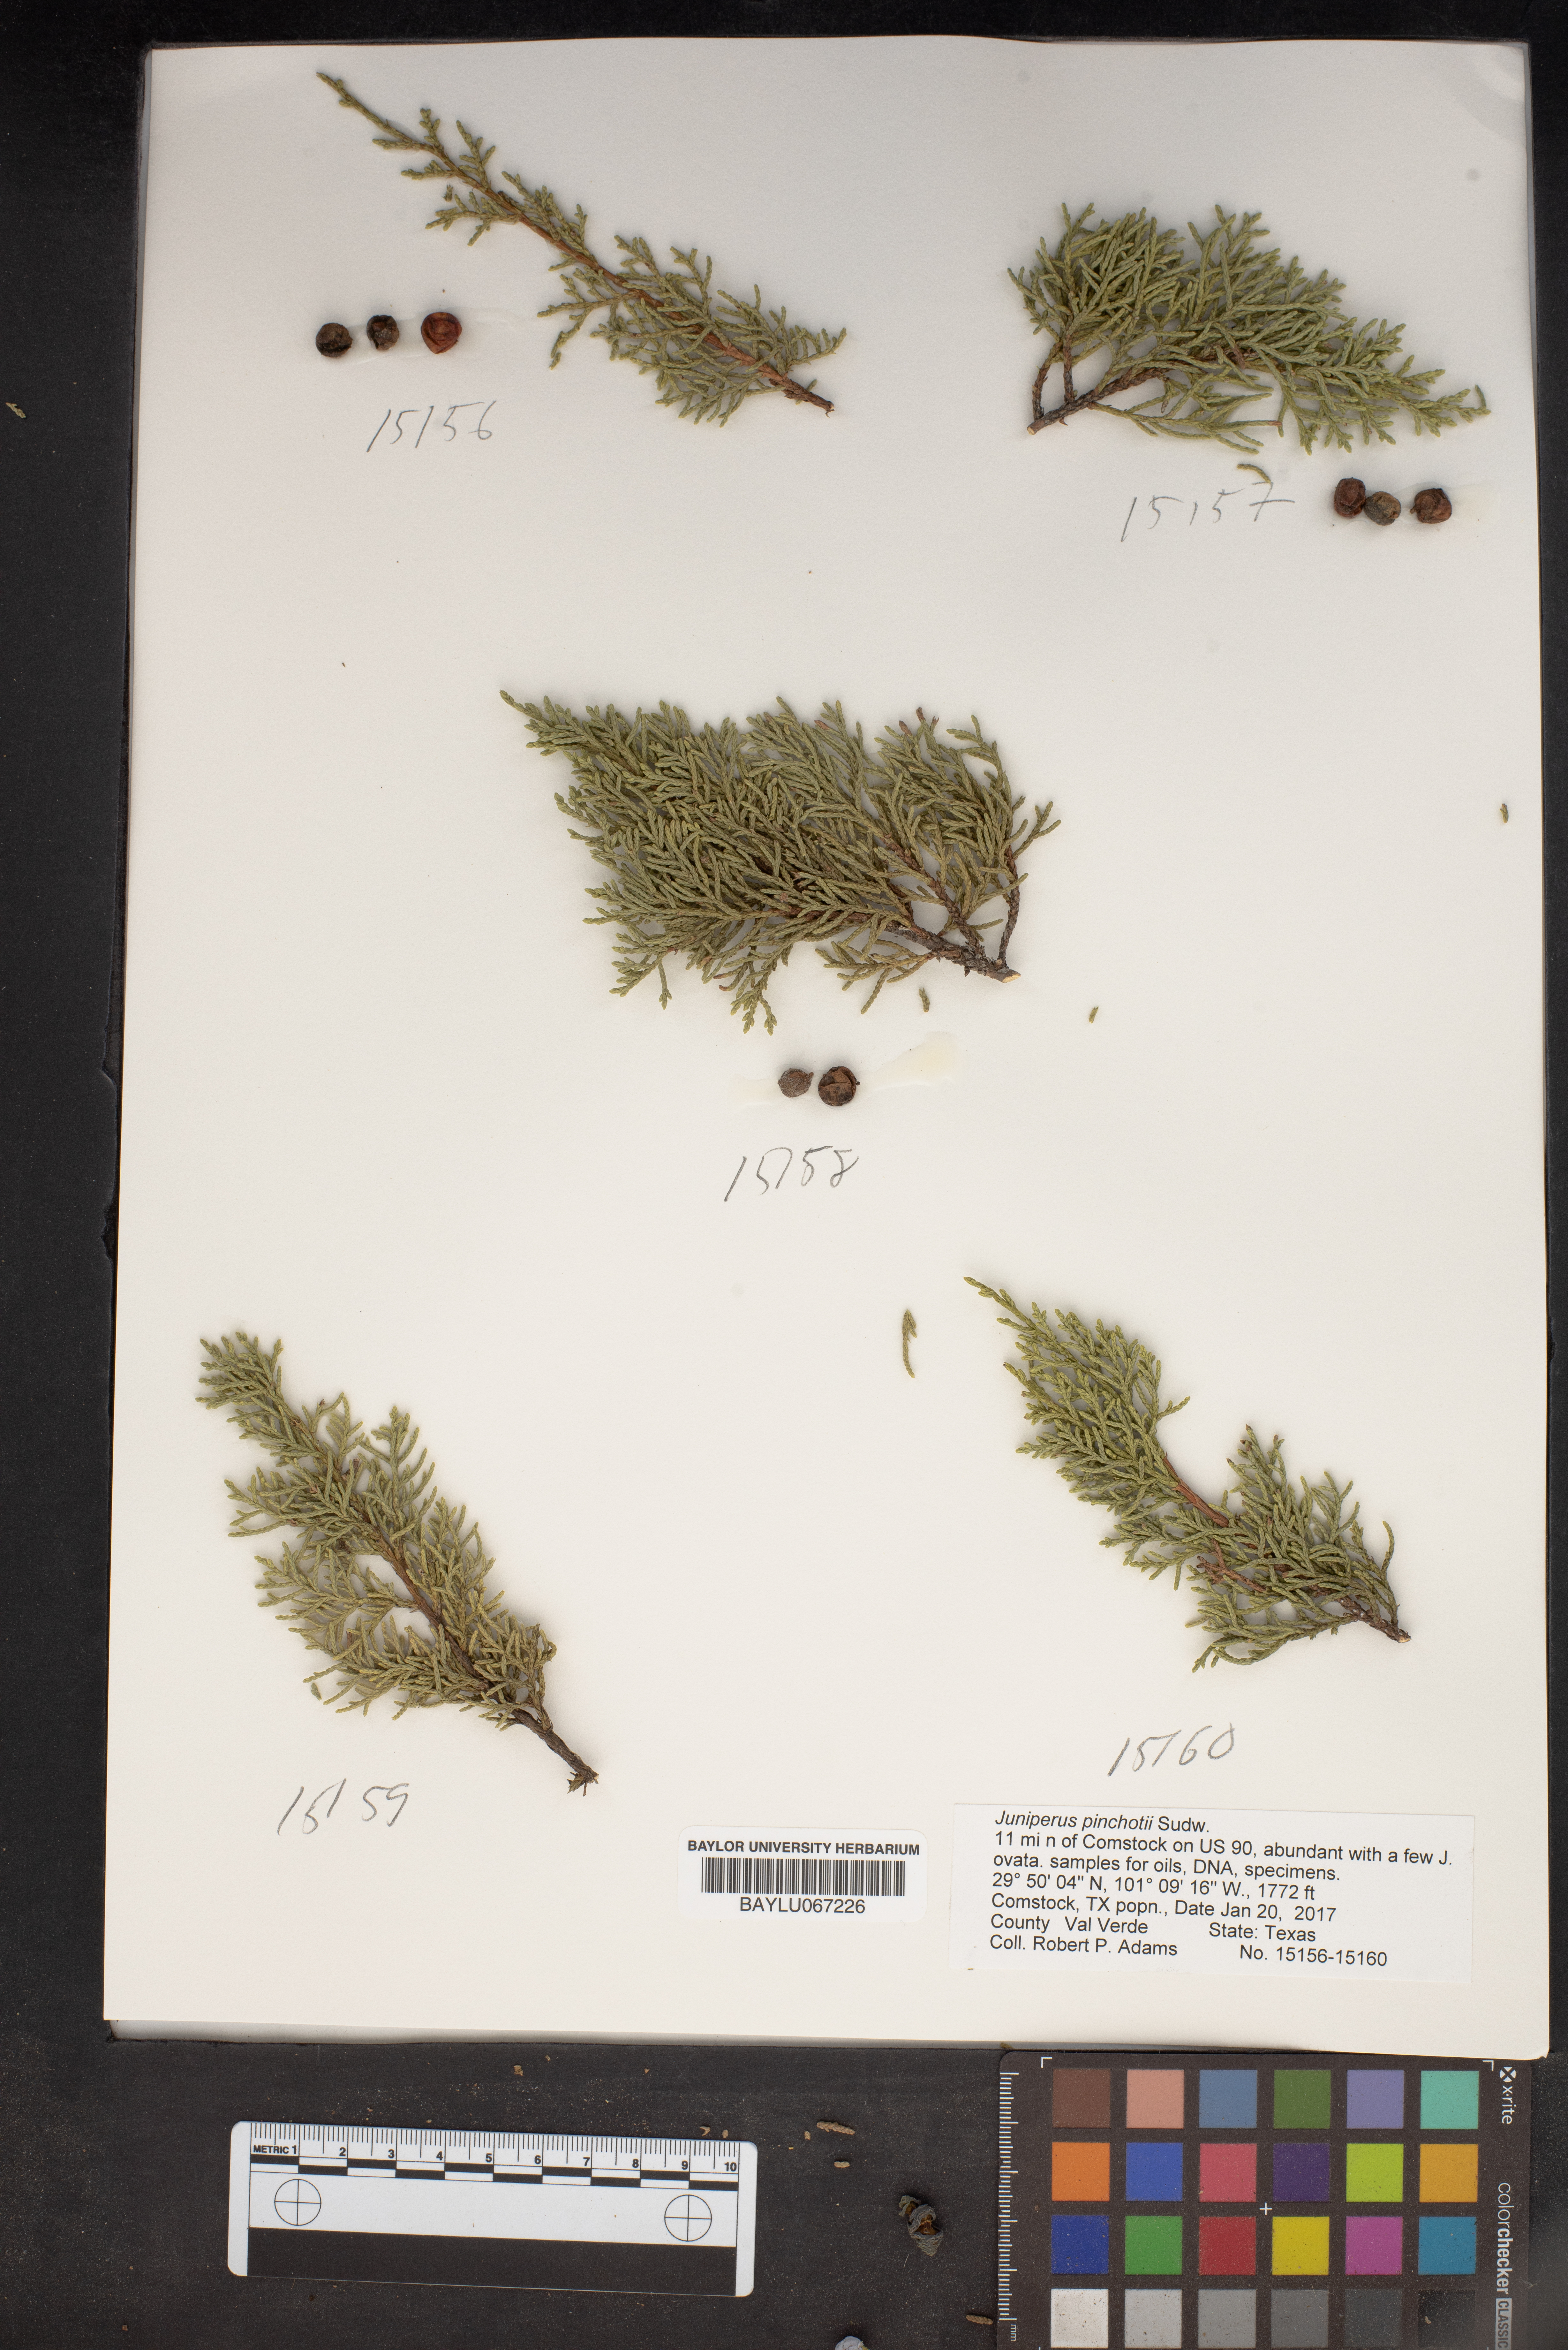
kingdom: Plantae
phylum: Tracheophyta
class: Pinopsida
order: Pinales
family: Cupressaceae
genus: Juniperus
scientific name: Juniperus pinchotii
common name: Pinchot juniper
